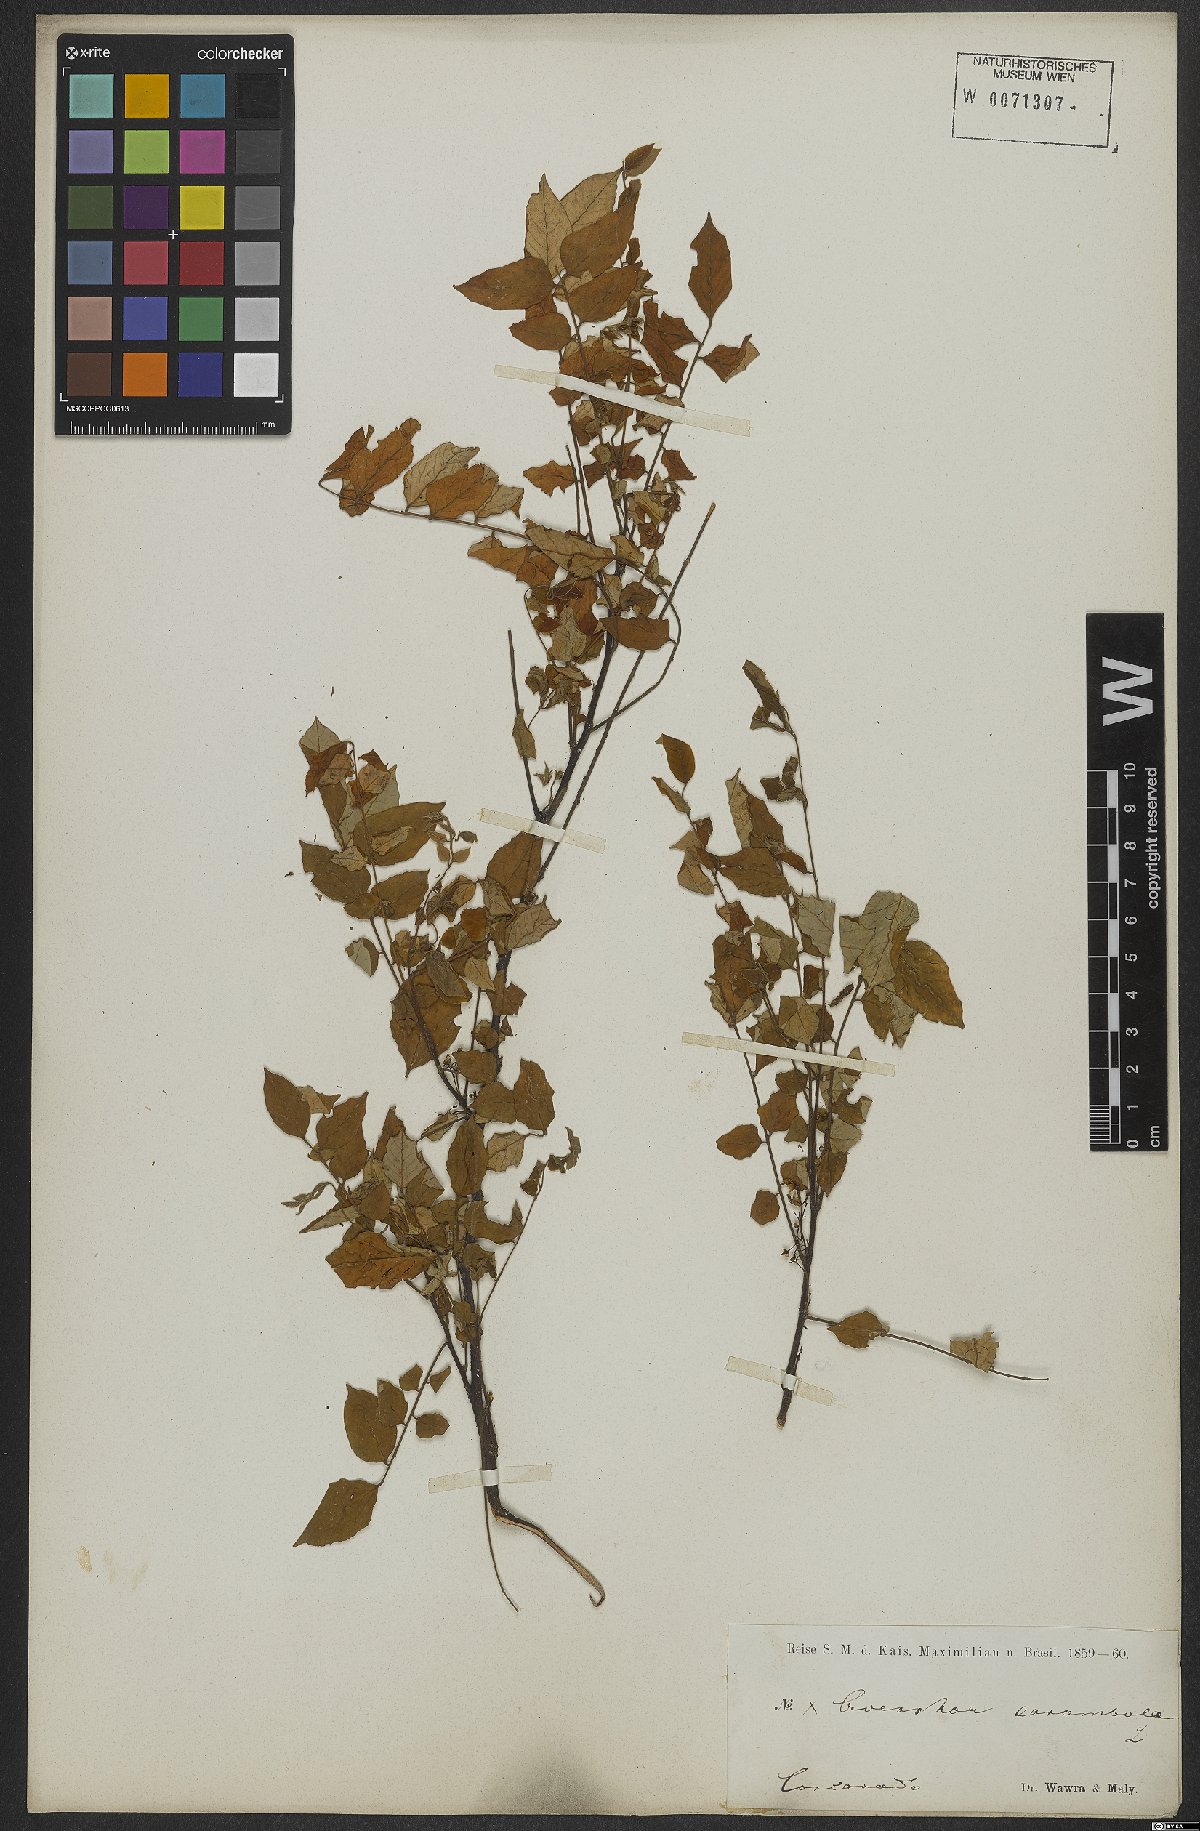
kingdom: Plantae
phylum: Tracheophyta
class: Magnoliopsida
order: Oxalidales
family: Oxalidaceae
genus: Averrhoa
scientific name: Averrhoa carambola
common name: Blimbing
